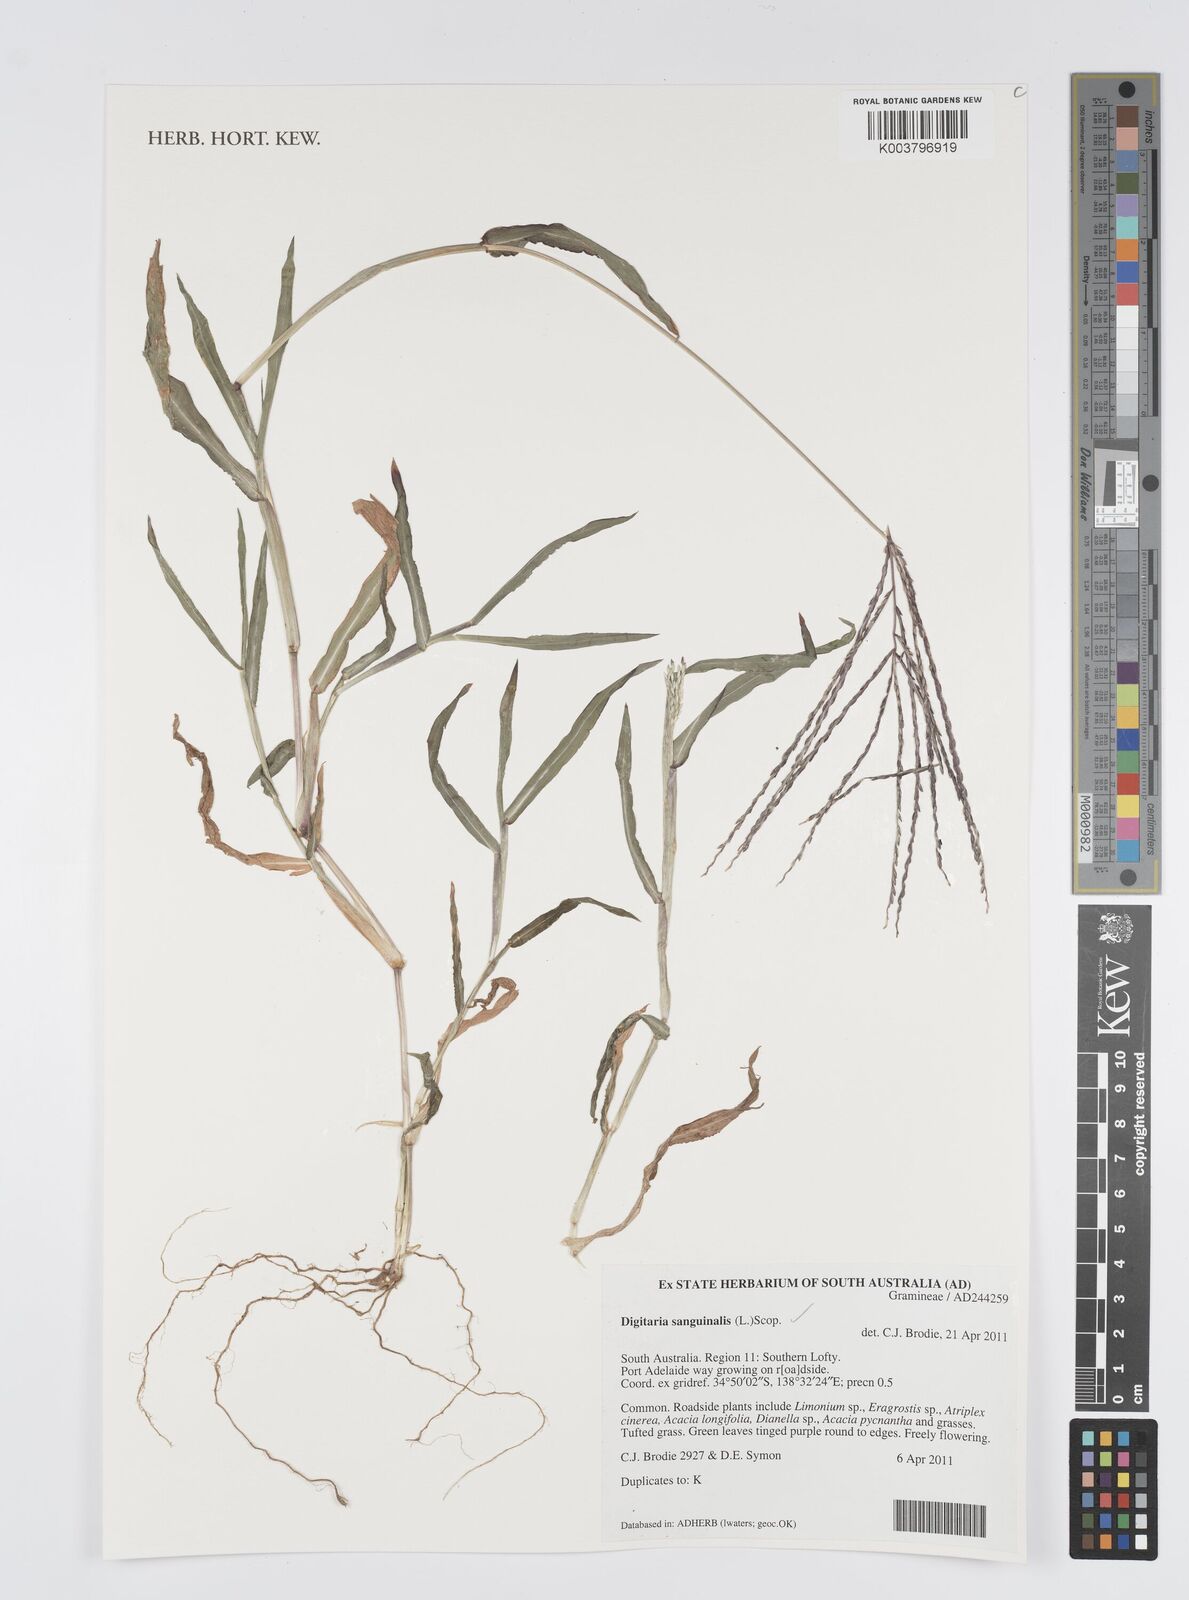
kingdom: Plantae
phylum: Tracheophyta
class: Liliopsida
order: Poales
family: Poaceae
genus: Digitaria
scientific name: Digitaria sanguinalis
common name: Hairy crabgrass
